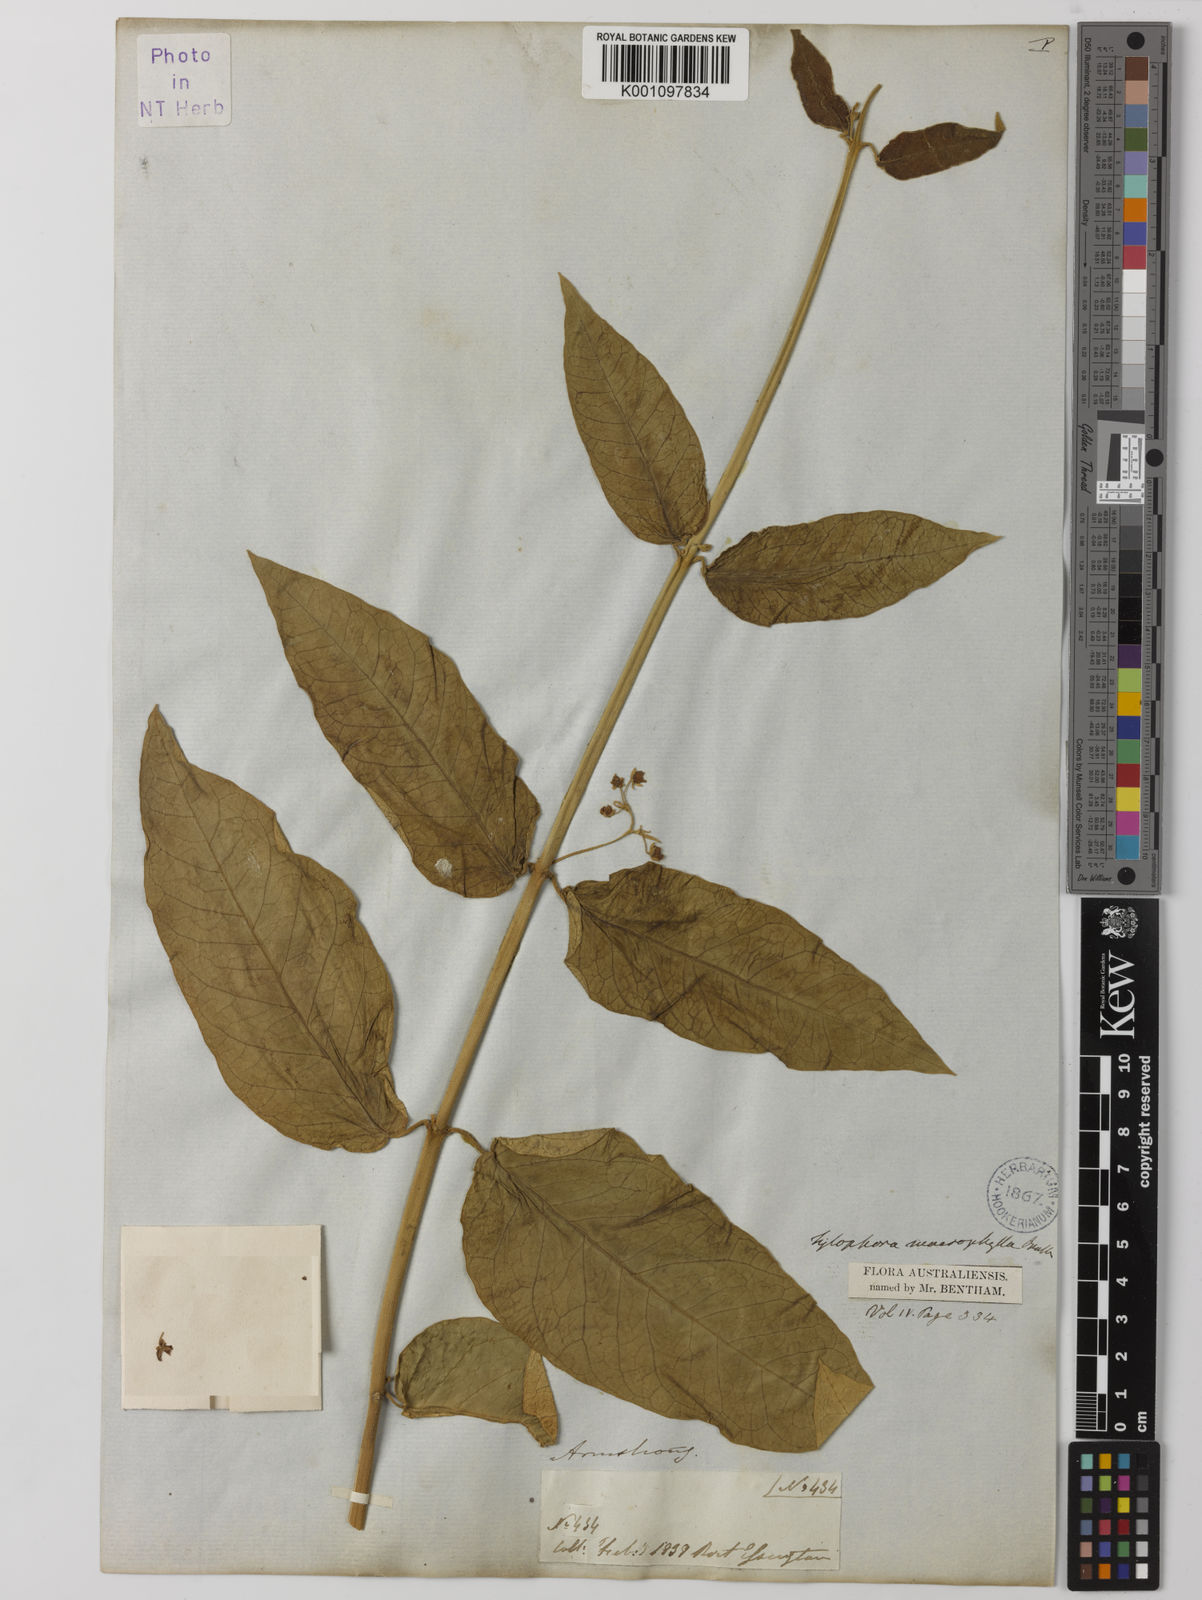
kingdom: Plantae
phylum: Tracheophyta
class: Magnoliopsida
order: Gentianales
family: Apocynaceae
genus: Vincetoxicum
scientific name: Vincetoxicum erectum
